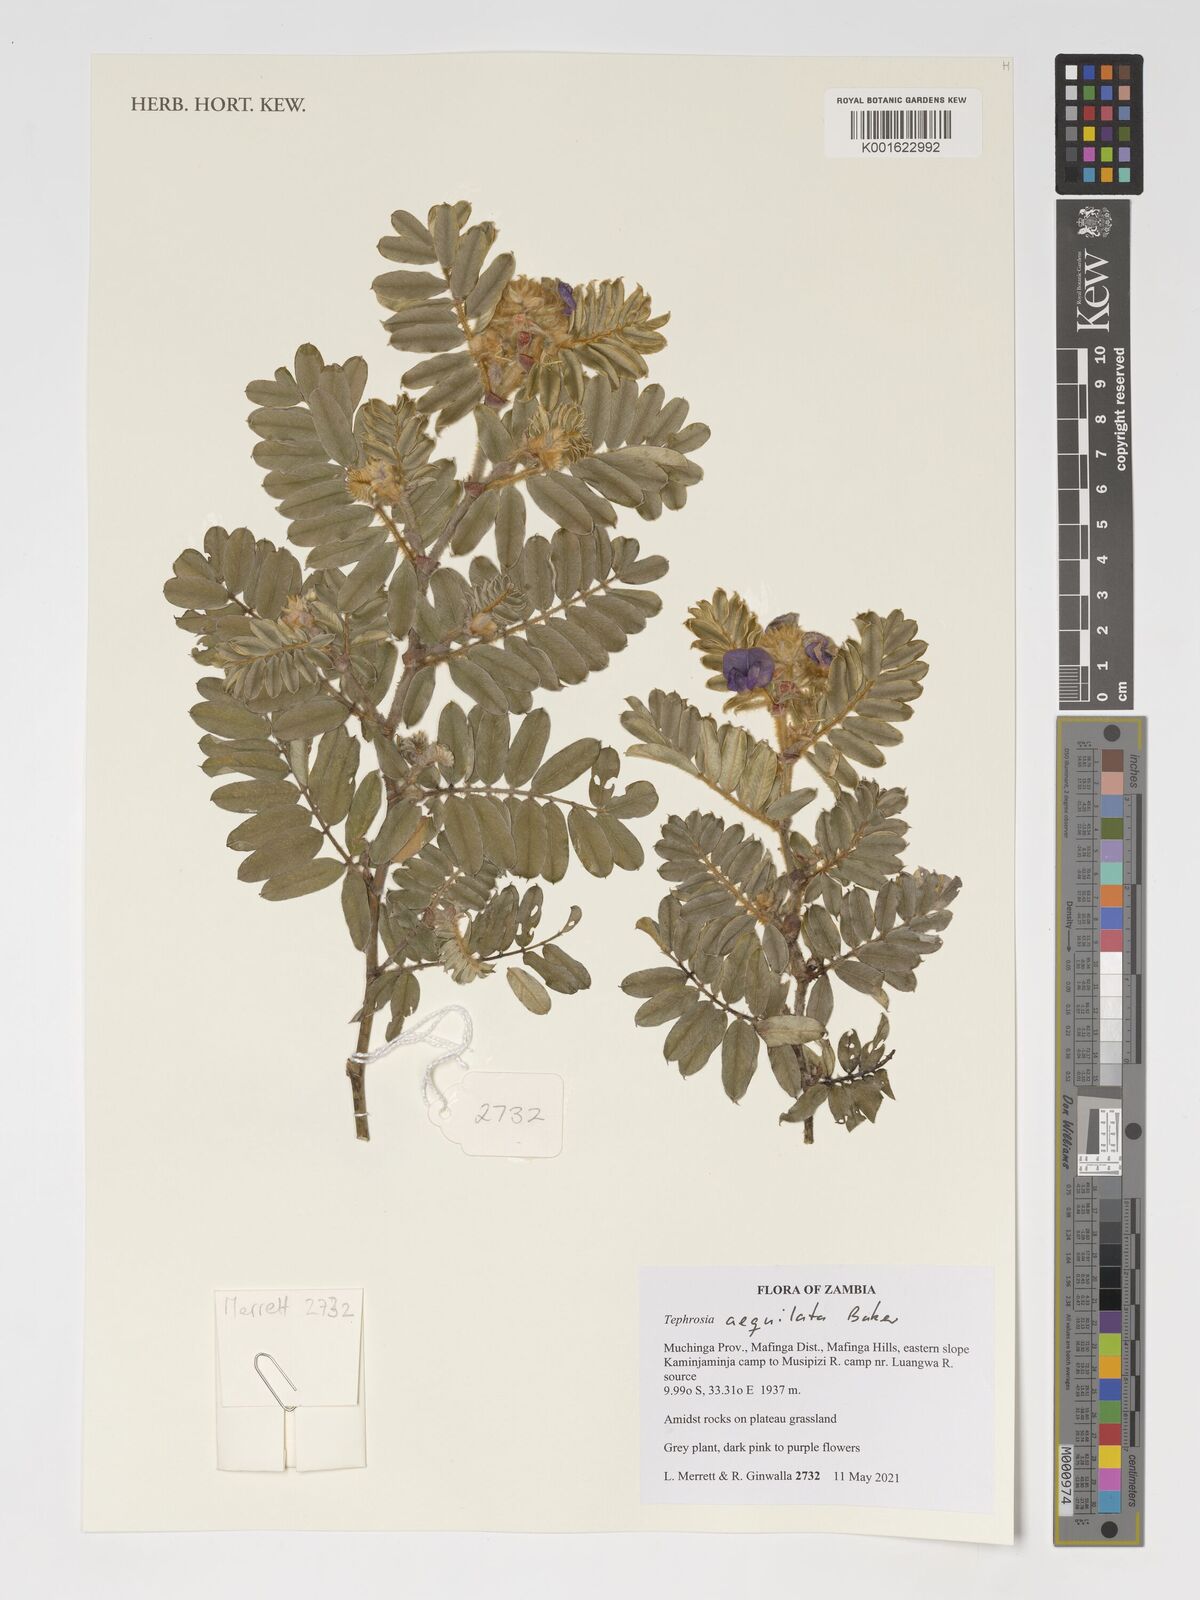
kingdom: Plantae
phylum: Tracheophyta
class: Magnoliopsida
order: Fabales
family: Fabaceae
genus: Tephrosia
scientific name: Tephrosia aequilata
